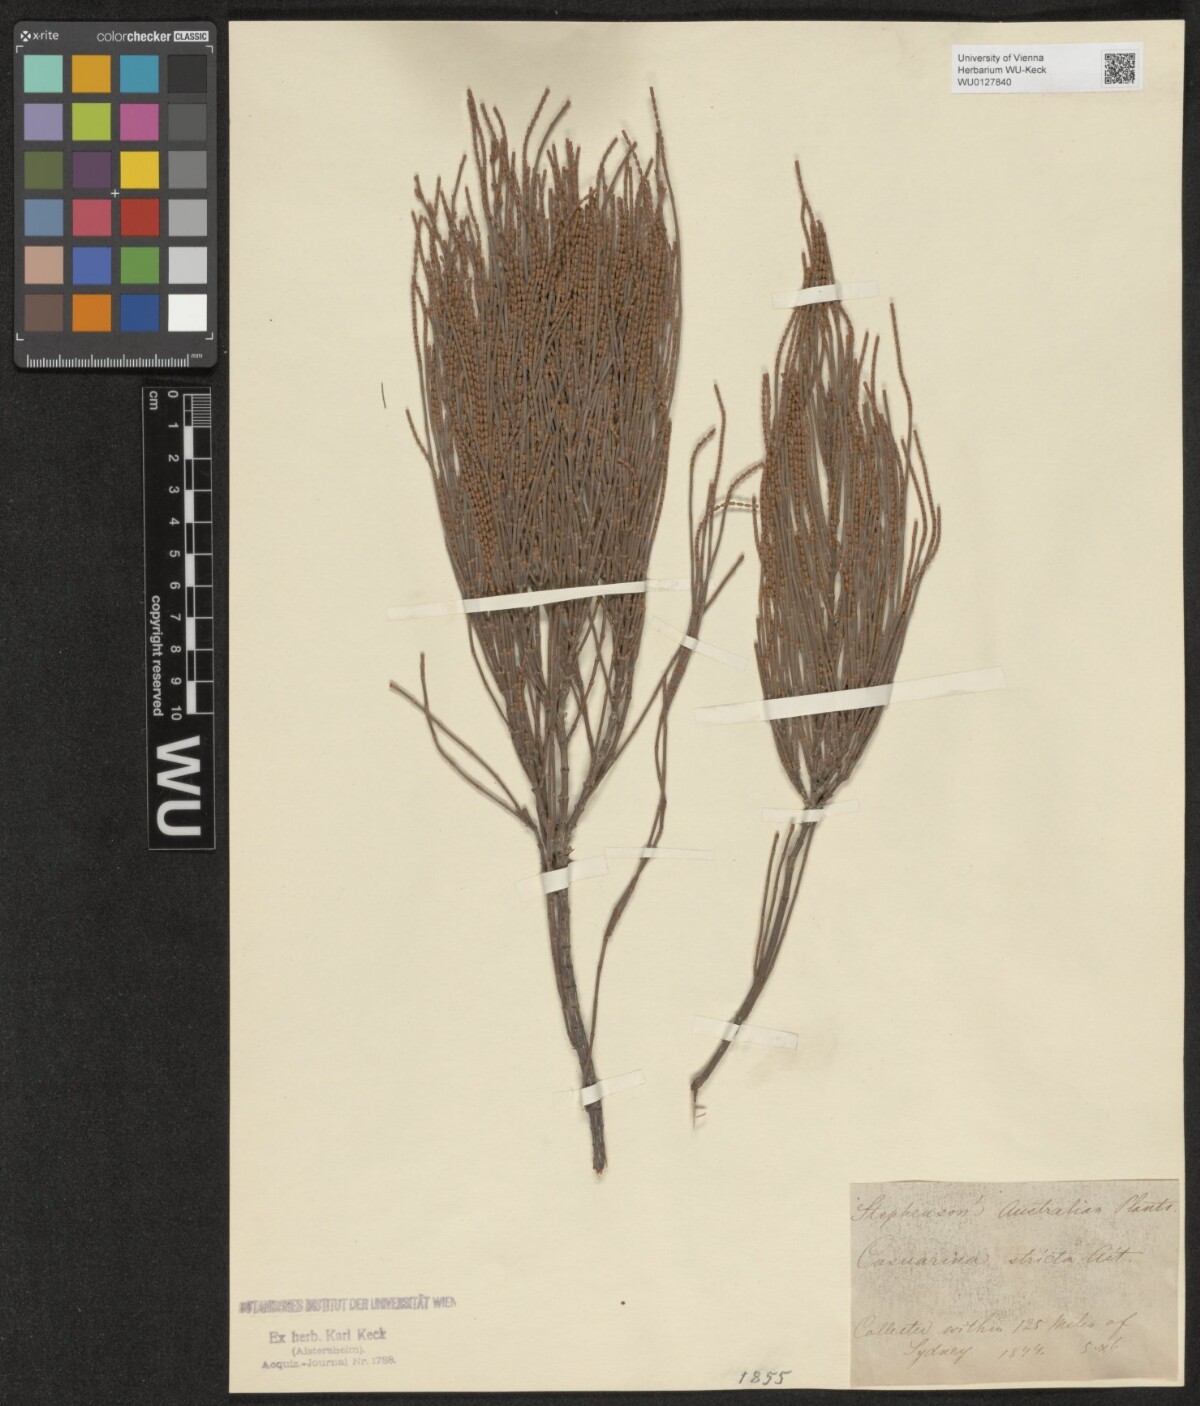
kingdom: Plantae
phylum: Tracheophyta
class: Magnoliopsida
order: Fagales
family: Casuarinaceae
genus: Casuarina
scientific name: Casuarina stricta
